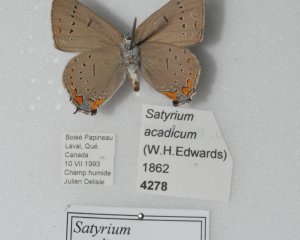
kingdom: Animalia
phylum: Arthropoda
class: Insecta
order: Lepidoptera
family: Lycaenidae
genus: Strymon
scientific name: Strymon acadica
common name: Acadian Hairstreak
